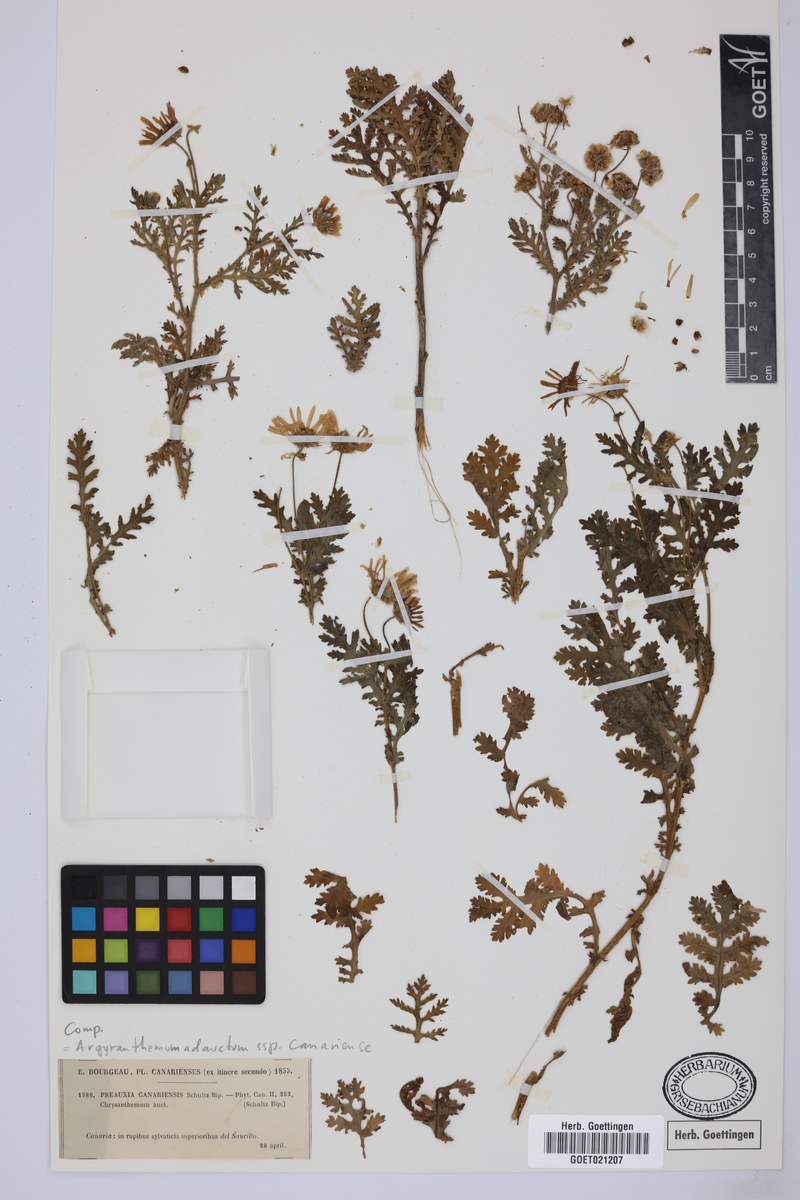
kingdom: Plantae
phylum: Tracheophyta
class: Magnoliopsida
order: Asterales
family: Asteraceae
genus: Argyranthemum
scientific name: Argyranthemum adauctum
